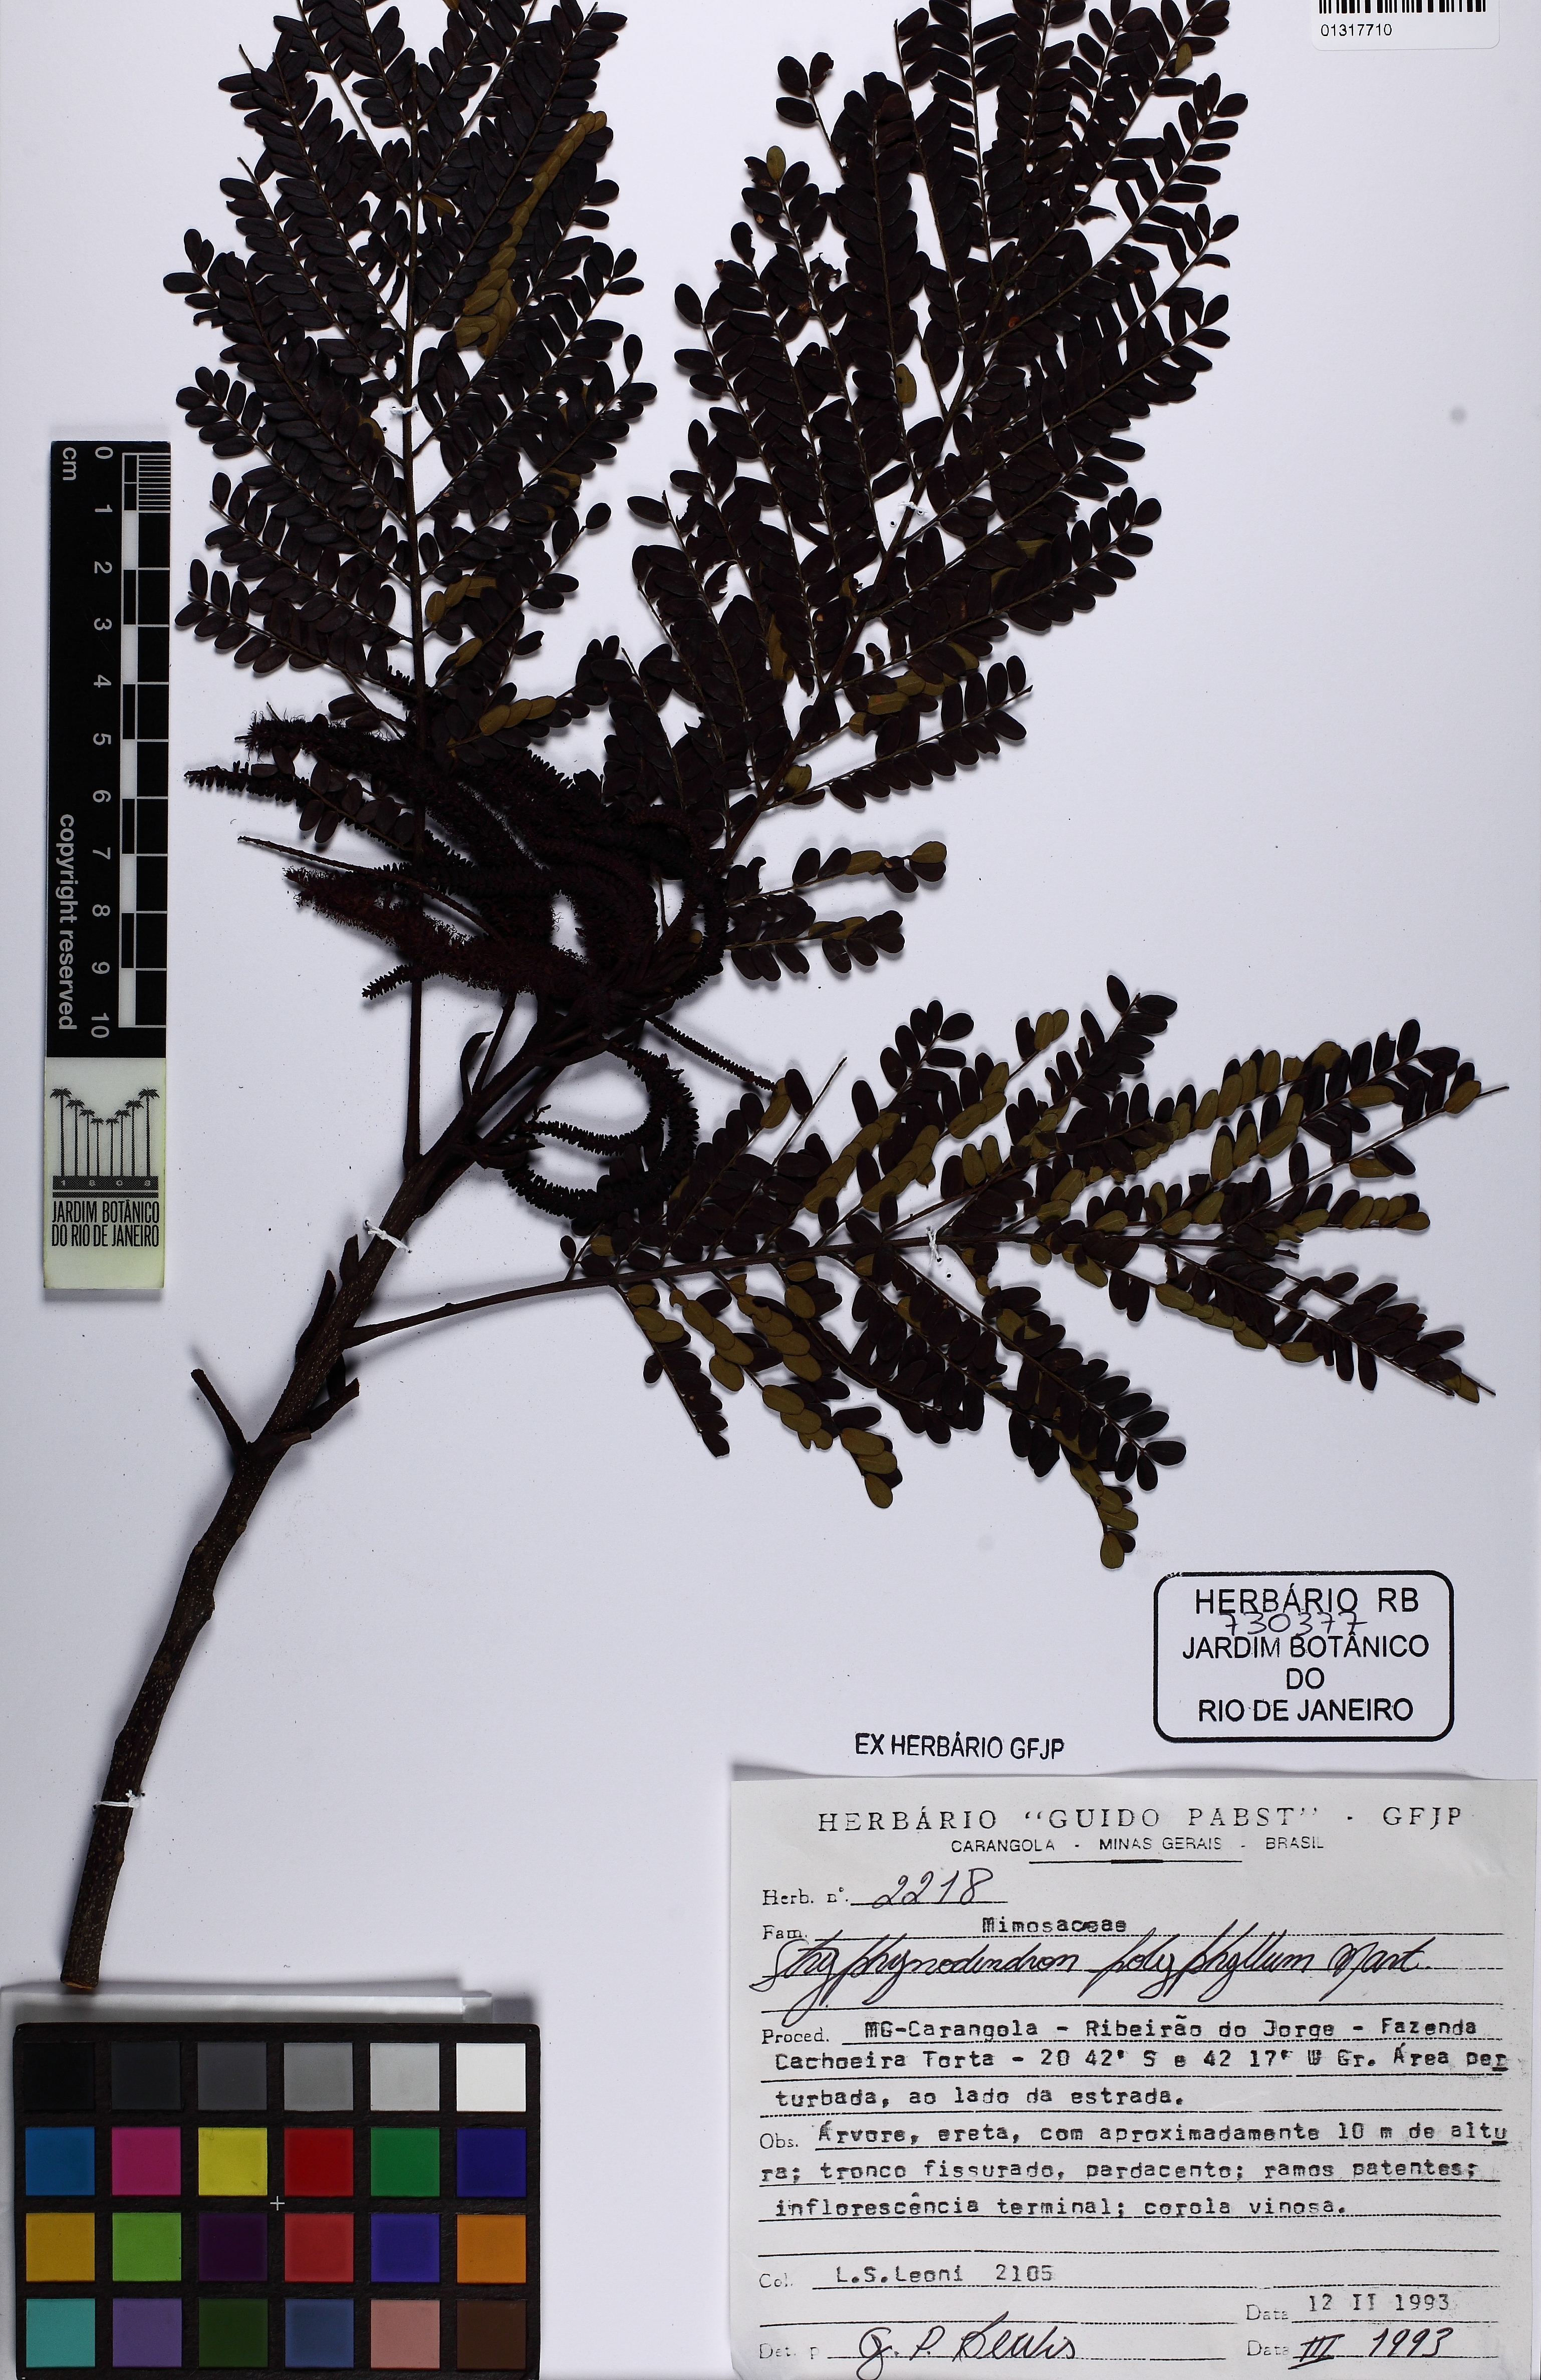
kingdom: Plantae
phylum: Tracheophyta
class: Magnoliopsida
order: Fabales
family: Fabaceae
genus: Stryphnodendron
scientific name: Stryphnodendron polyphyllum
